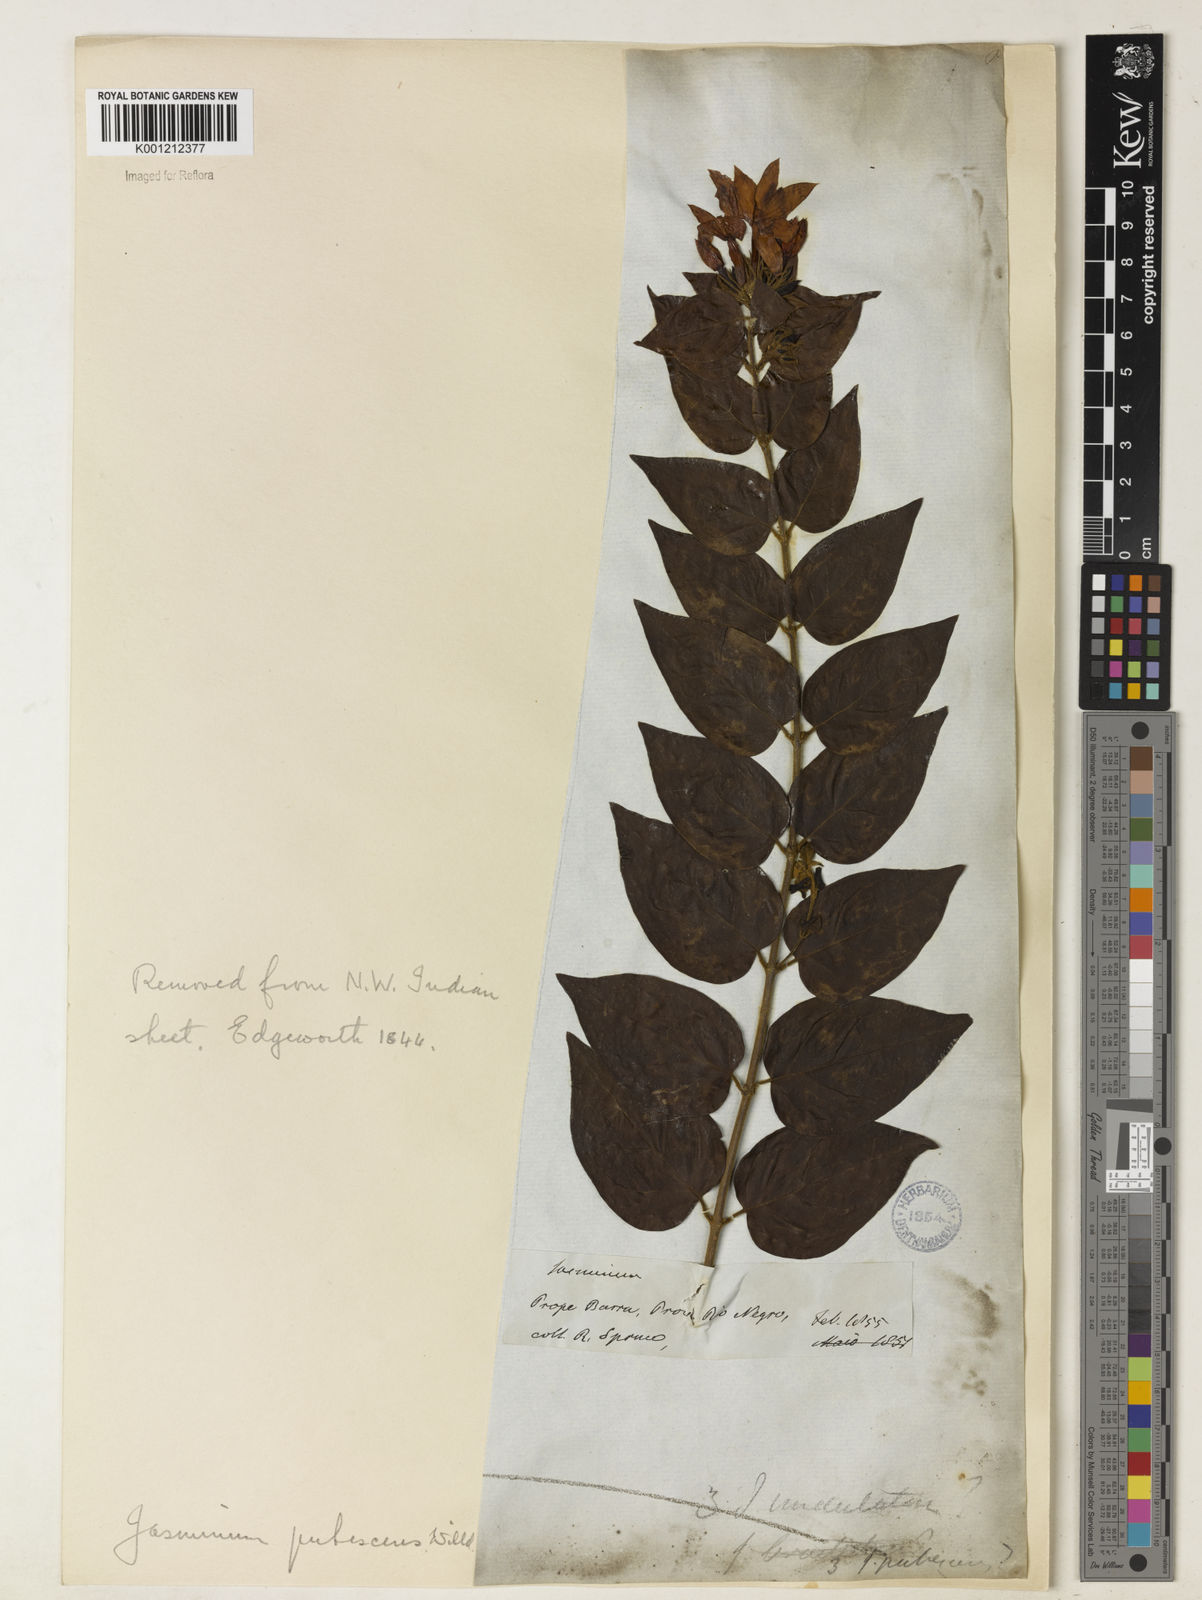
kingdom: Plantae
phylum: Tracheophyta
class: Magnoliopsida
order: Lamiales
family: Oleaceae
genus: Jasminum
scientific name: Jasminum multiflorum
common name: Star jasmine
